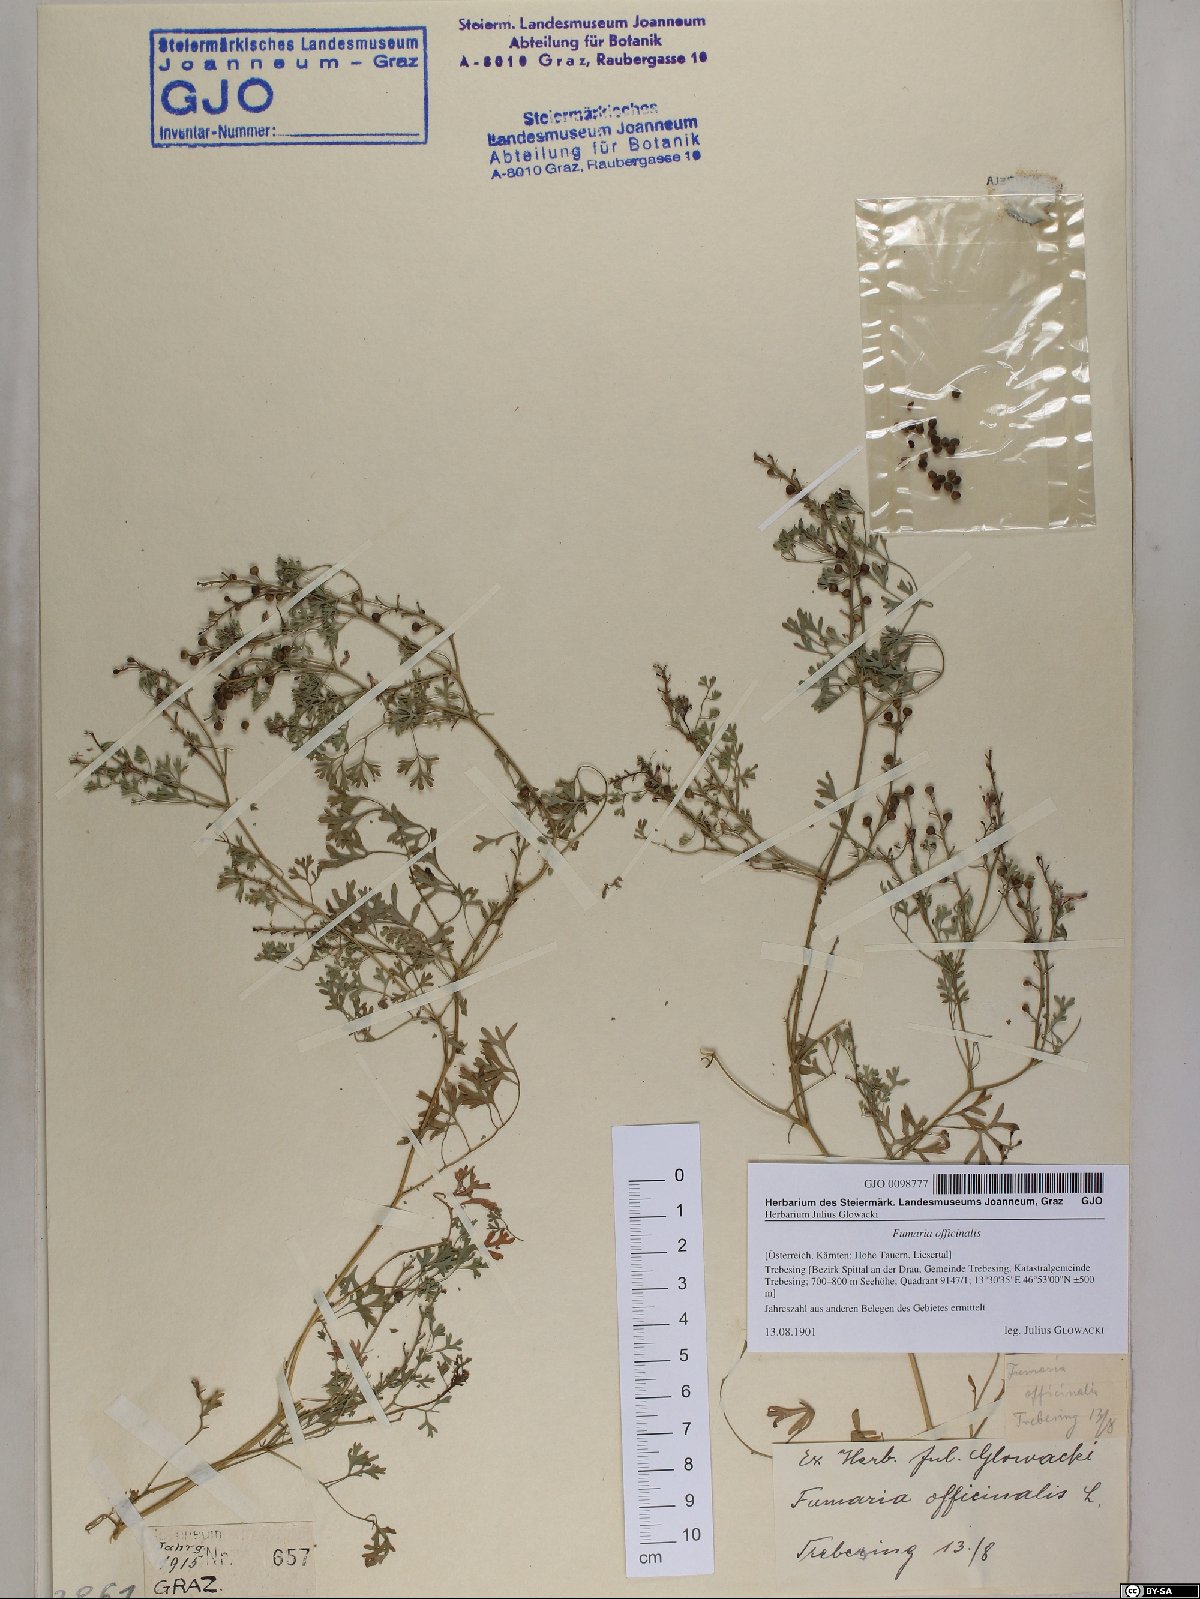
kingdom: Plantae
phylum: Tracheophyta
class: Magnoliopsida
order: Ranunculales
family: Papaveraceae
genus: Fumaria
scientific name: Fumaria officinalis
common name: Common fumitory
